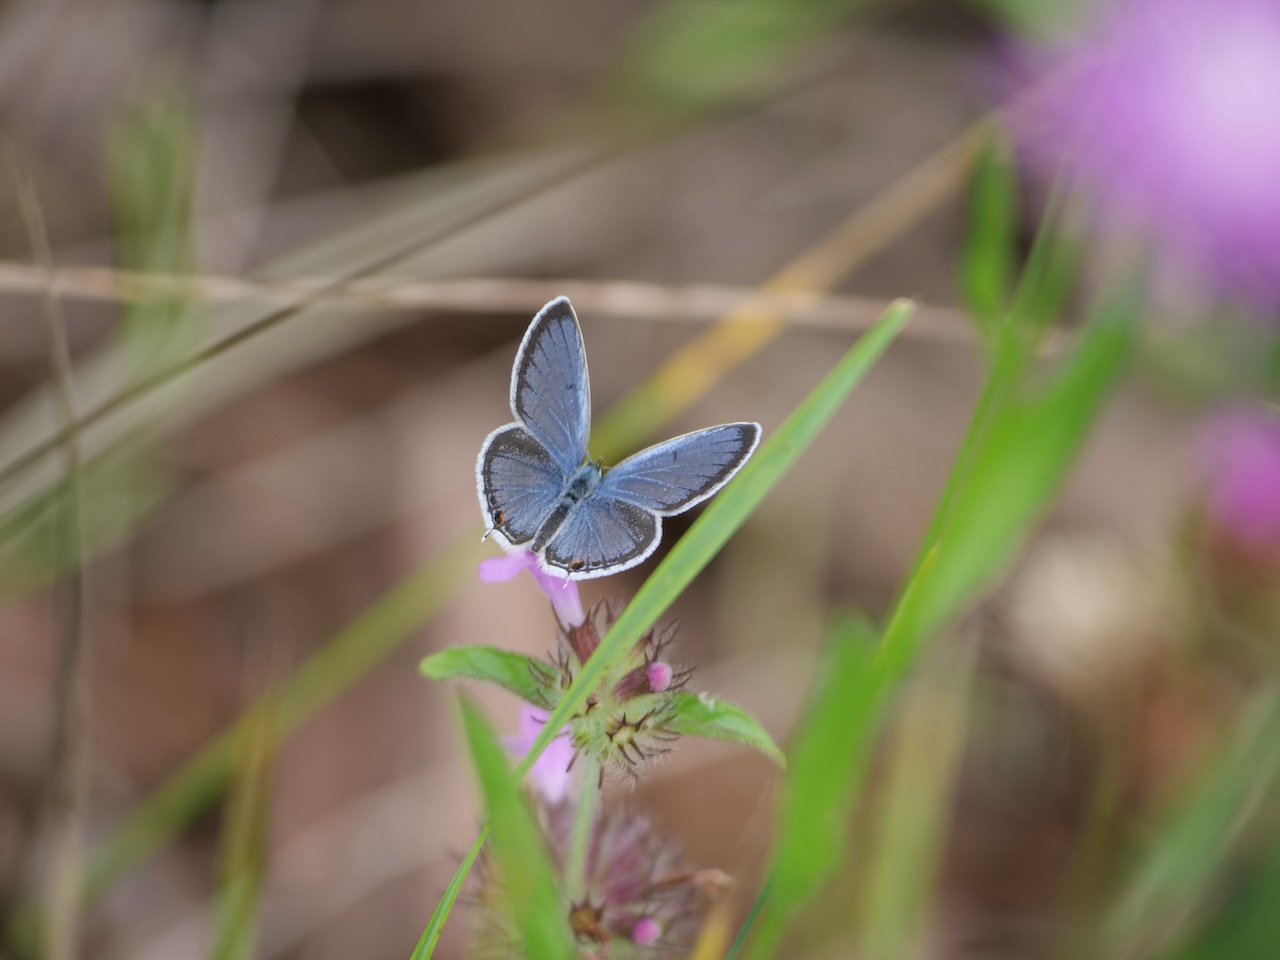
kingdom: Animalia
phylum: Arthropoda
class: Insecta
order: Lepidoptera
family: Lycaenidae
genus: Elkalyce
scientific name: Elkalyce comyntas
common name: Eastern Tailed-Blue
